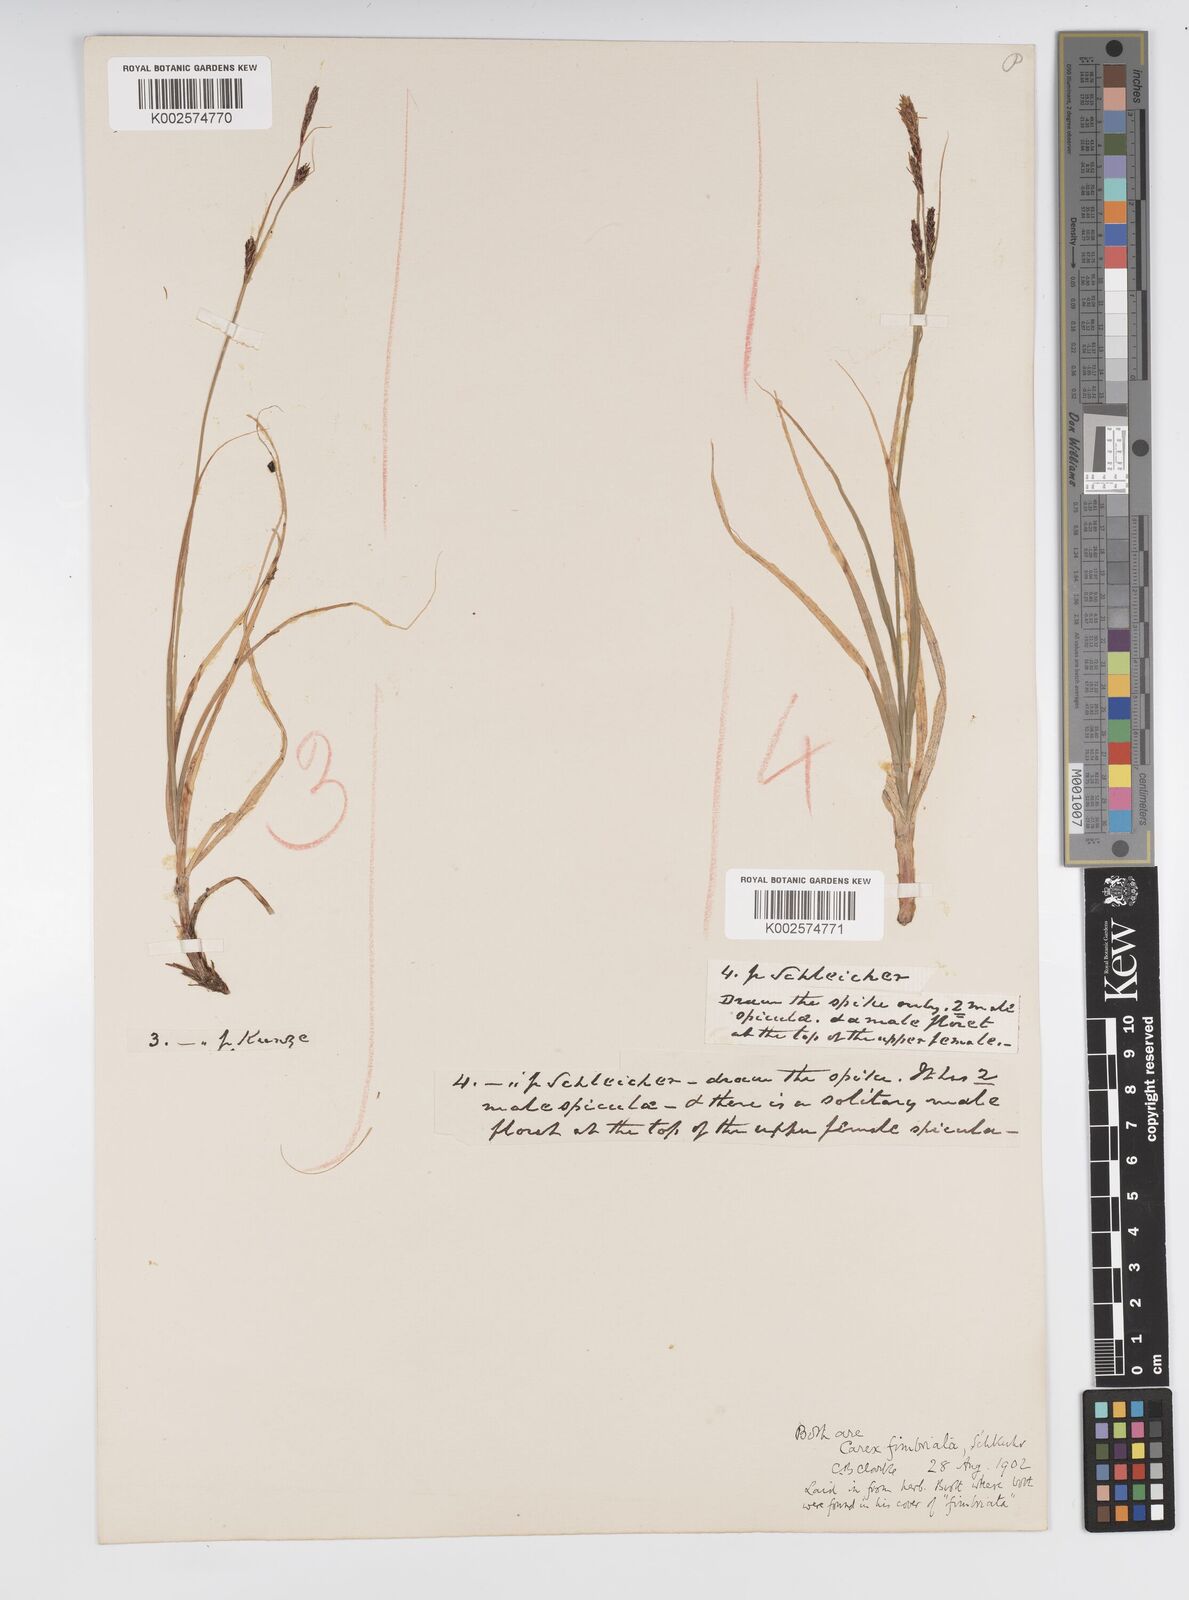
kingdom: Plantae
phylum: Tracheophyta
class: Liliopsida
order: Poales
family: Cyperaceae
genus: Carex
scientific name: Carex fimbriata
